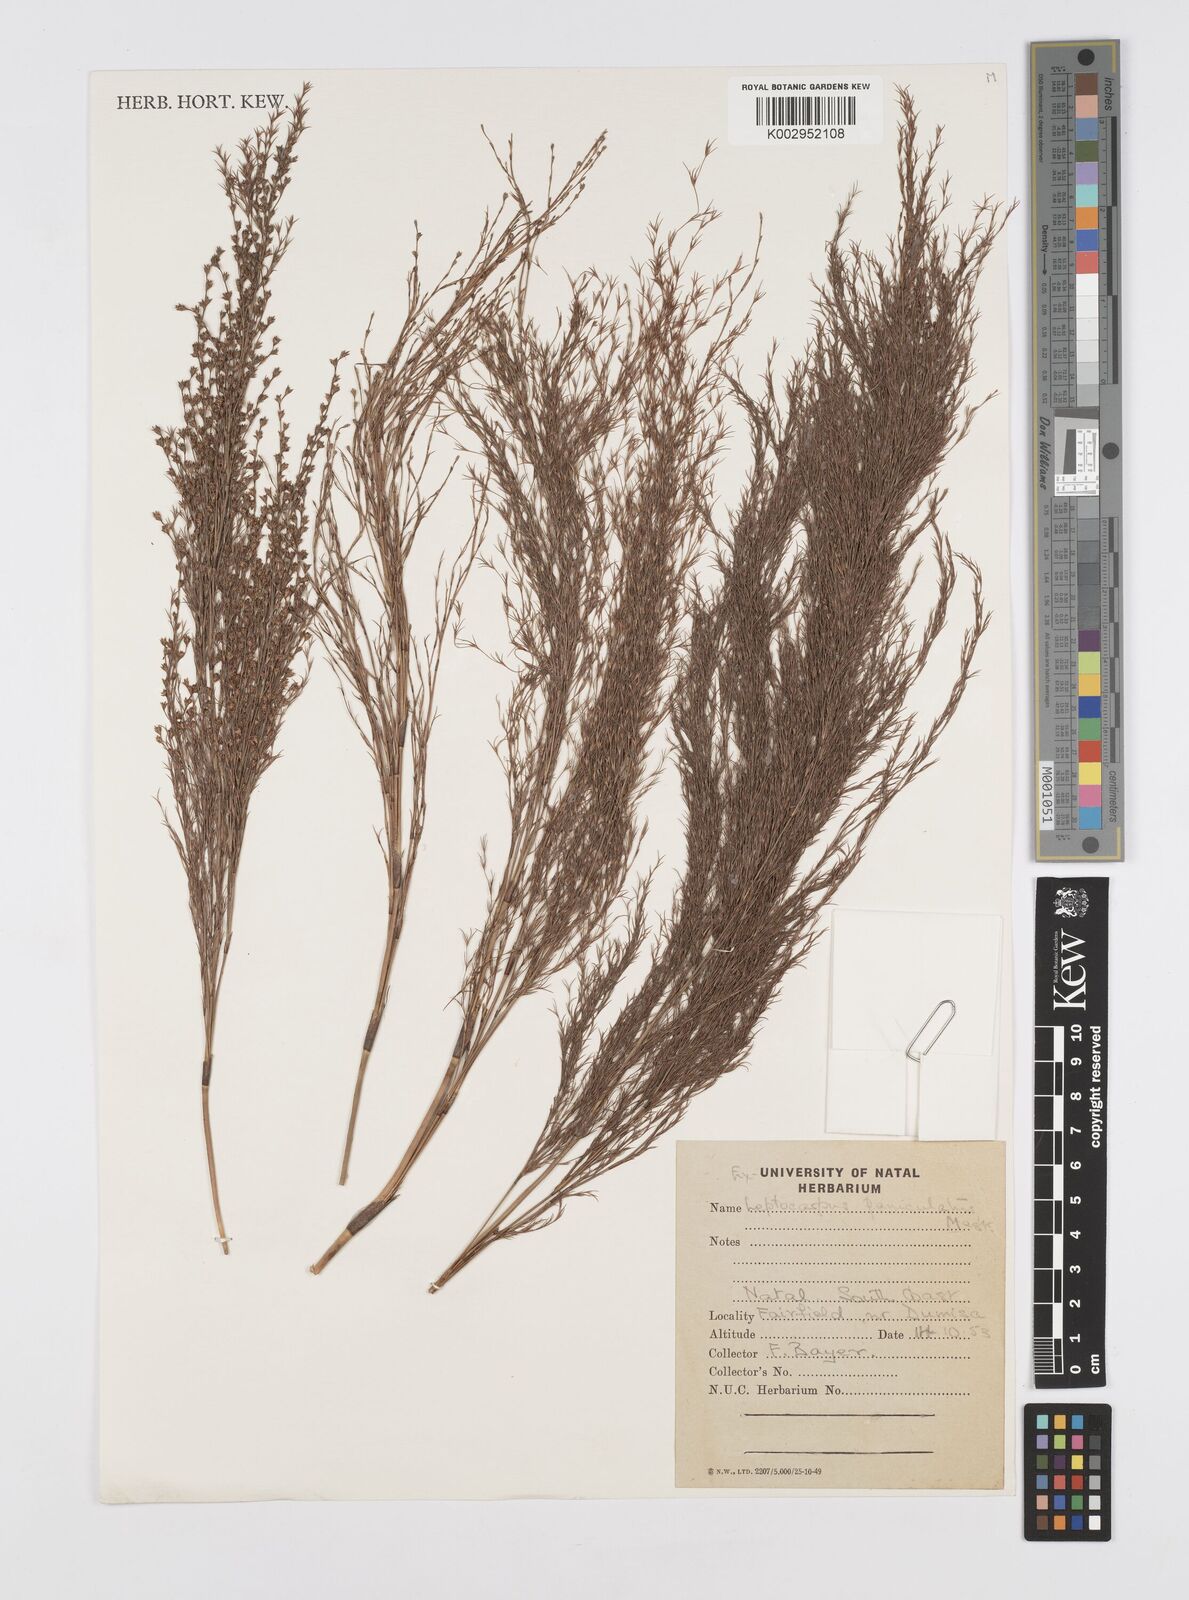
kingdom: Plantae
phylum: Tracheophyta
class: Liliopsida
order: Poales
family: Restionaceae
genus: Restio
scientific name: Restio paniculatus
